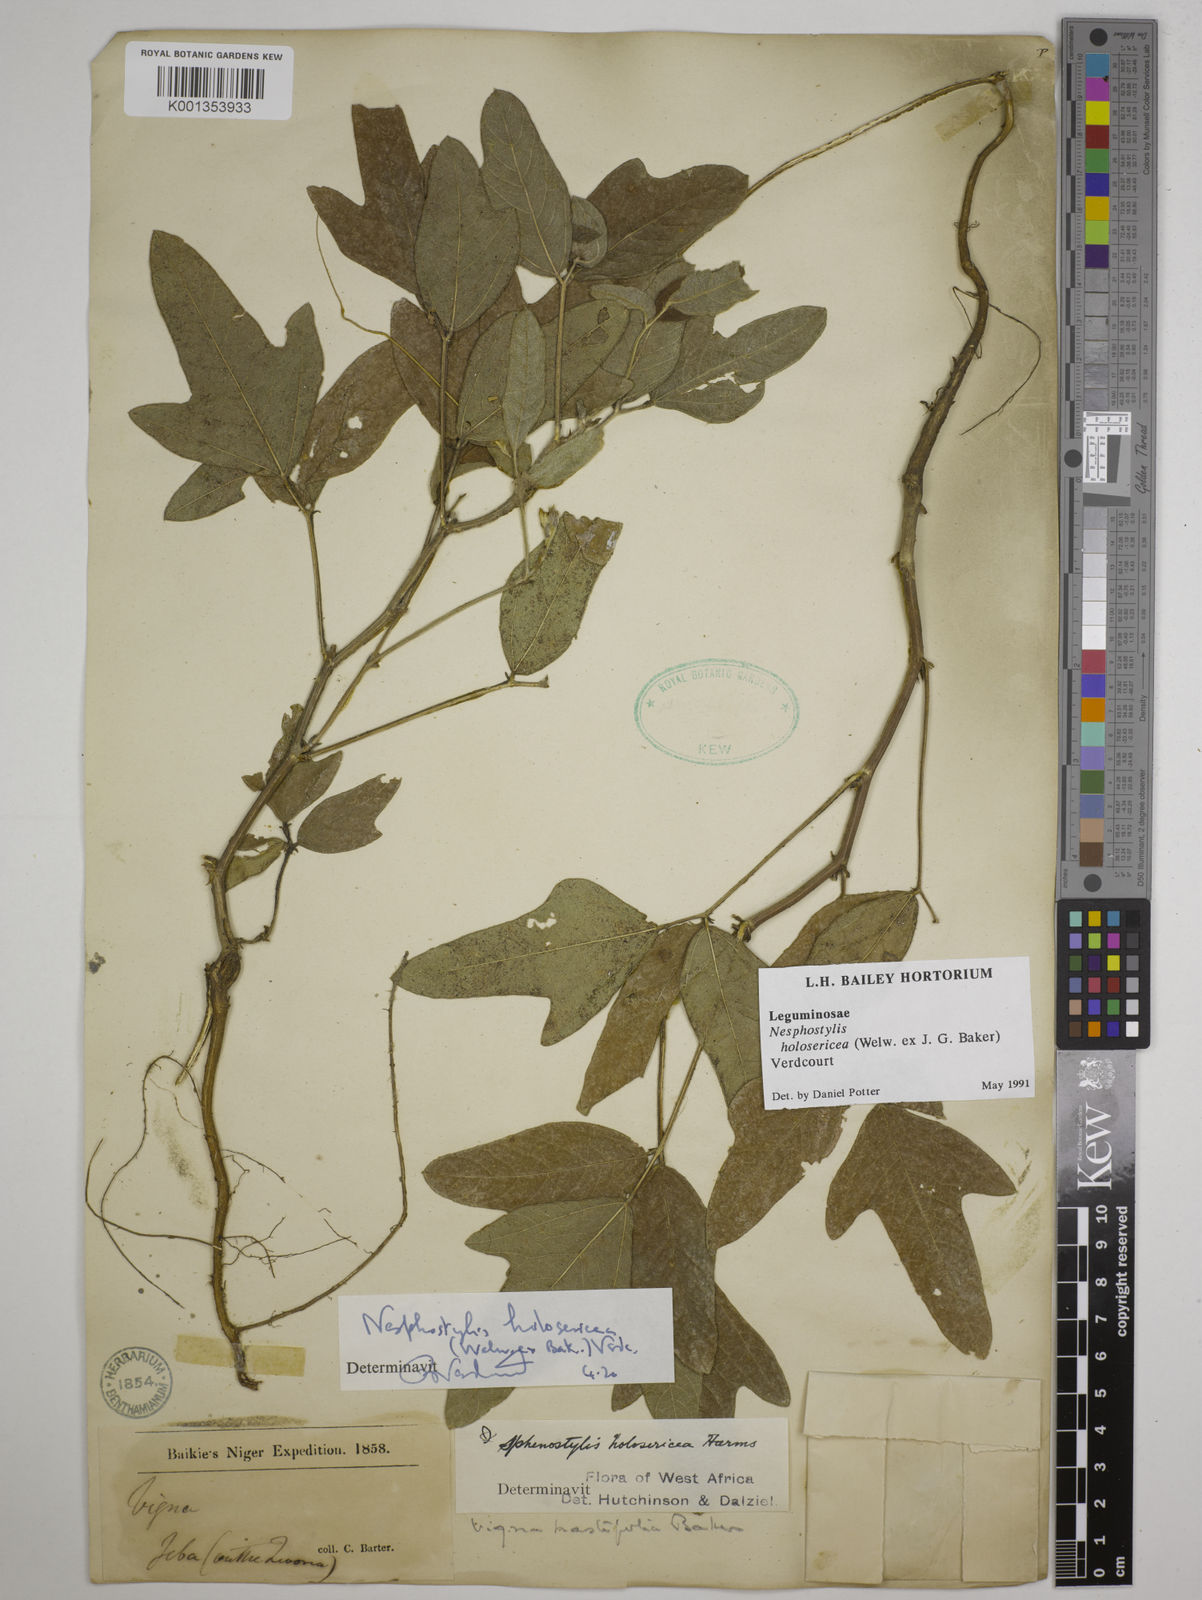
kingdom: Plantae
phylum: Tracheophyta
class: Magnoliopsida
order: Fabales
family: Fabaceae
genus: Nesphostylis
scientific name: Nesphostylis holosericea
